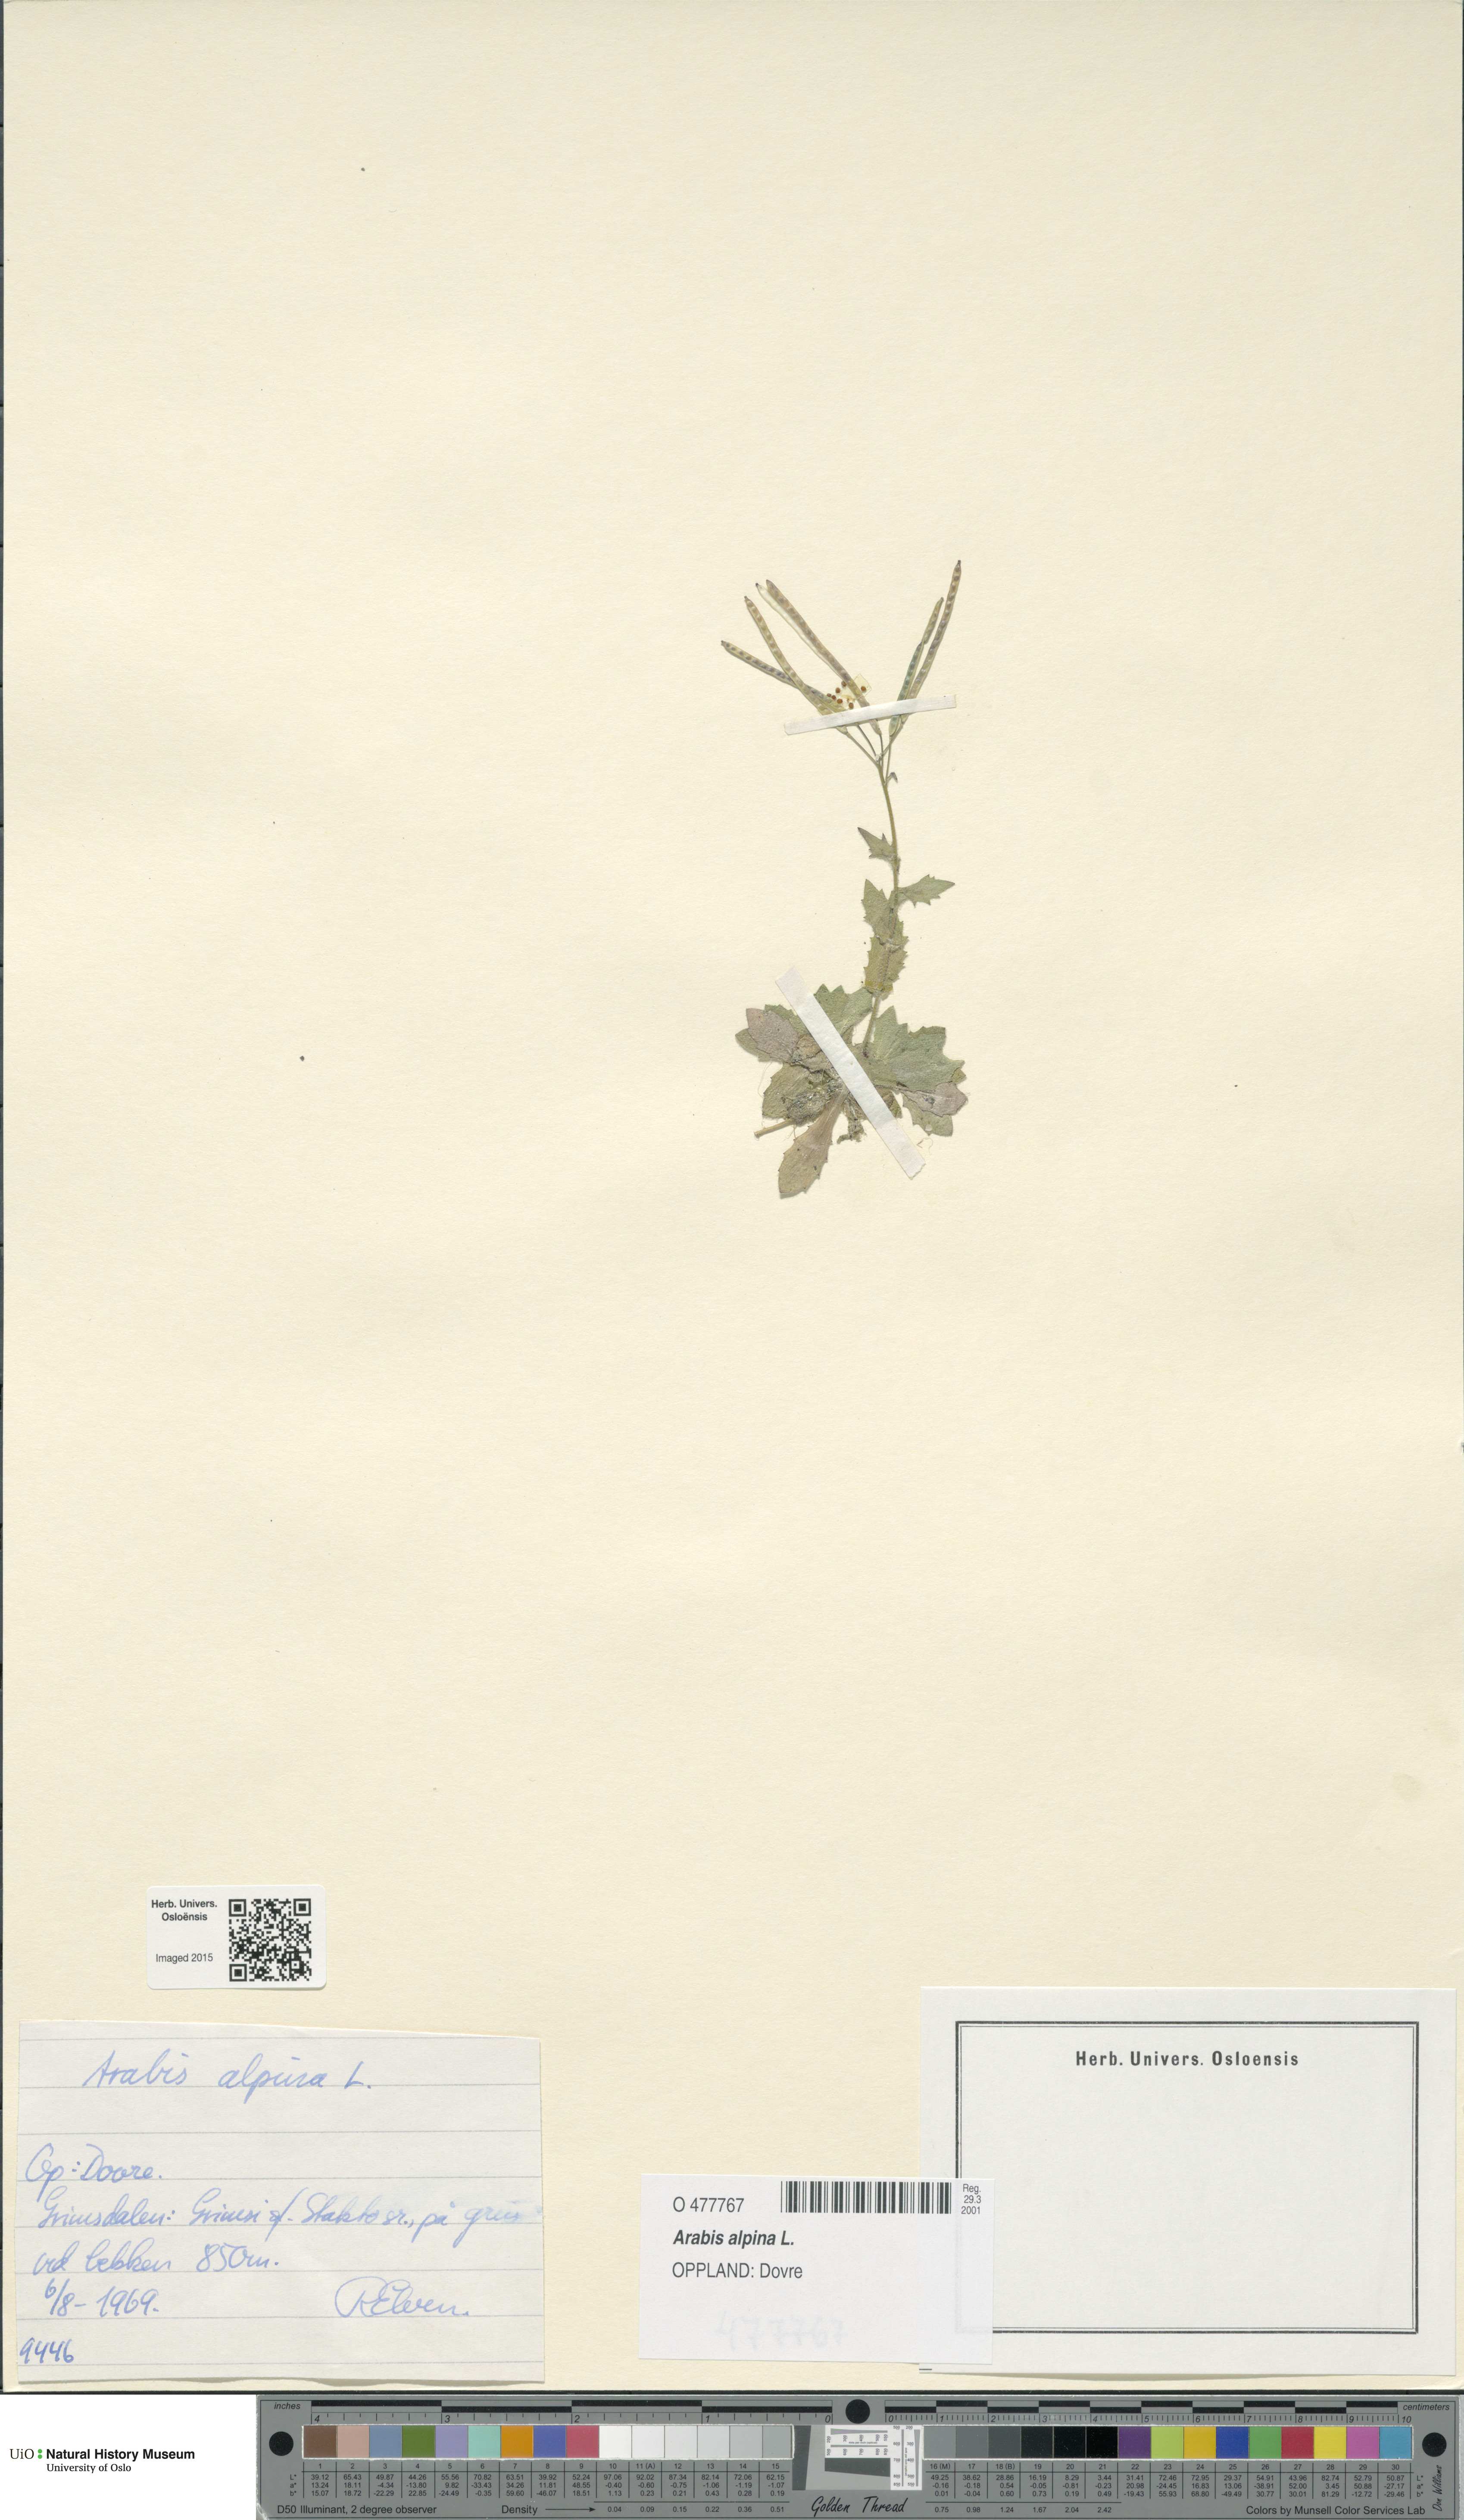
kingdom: Plantae
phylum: Tracheophyta
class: Magnoliopsida
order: Brassicales
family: Brassicaceae
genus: Arabis
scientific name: Arabis alpina
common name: Alpine rock-cress
